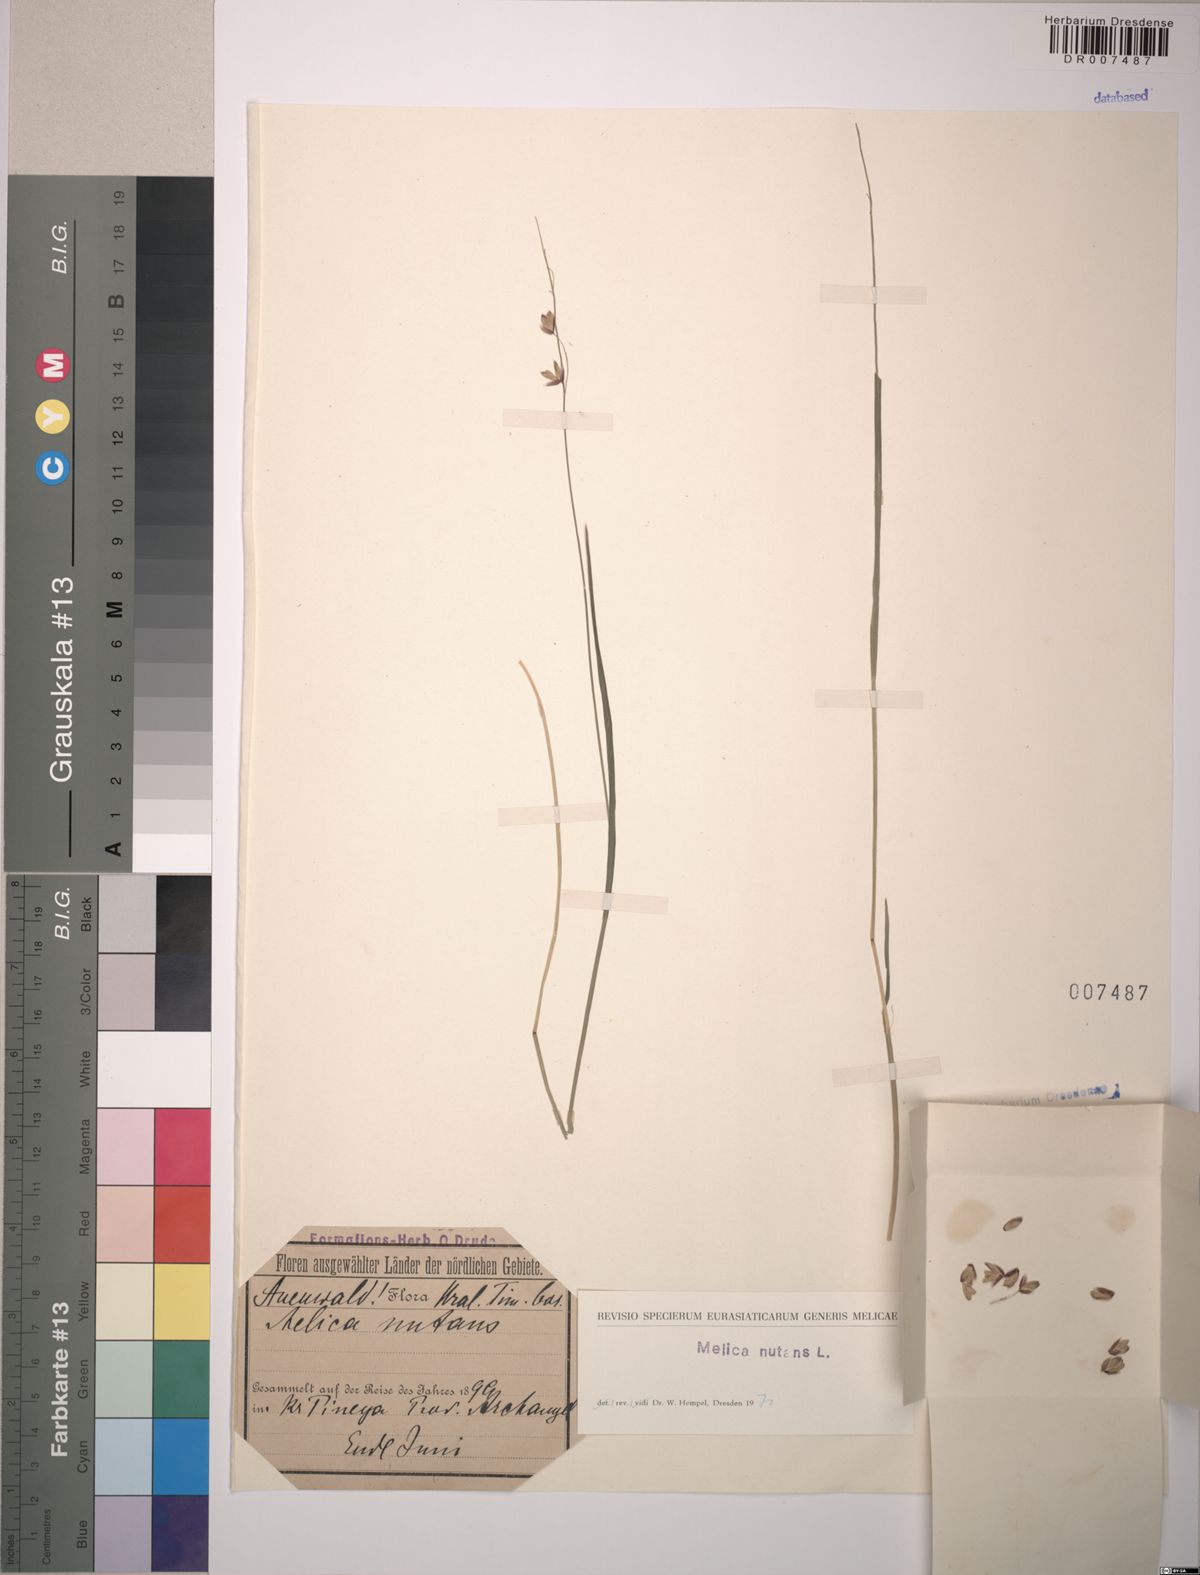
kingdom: Plantae
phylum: Tracheophyta
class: Liliopsida
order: Poales
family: Poaceae
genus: Melica
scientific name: Melica nutans
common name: Mountain melick
